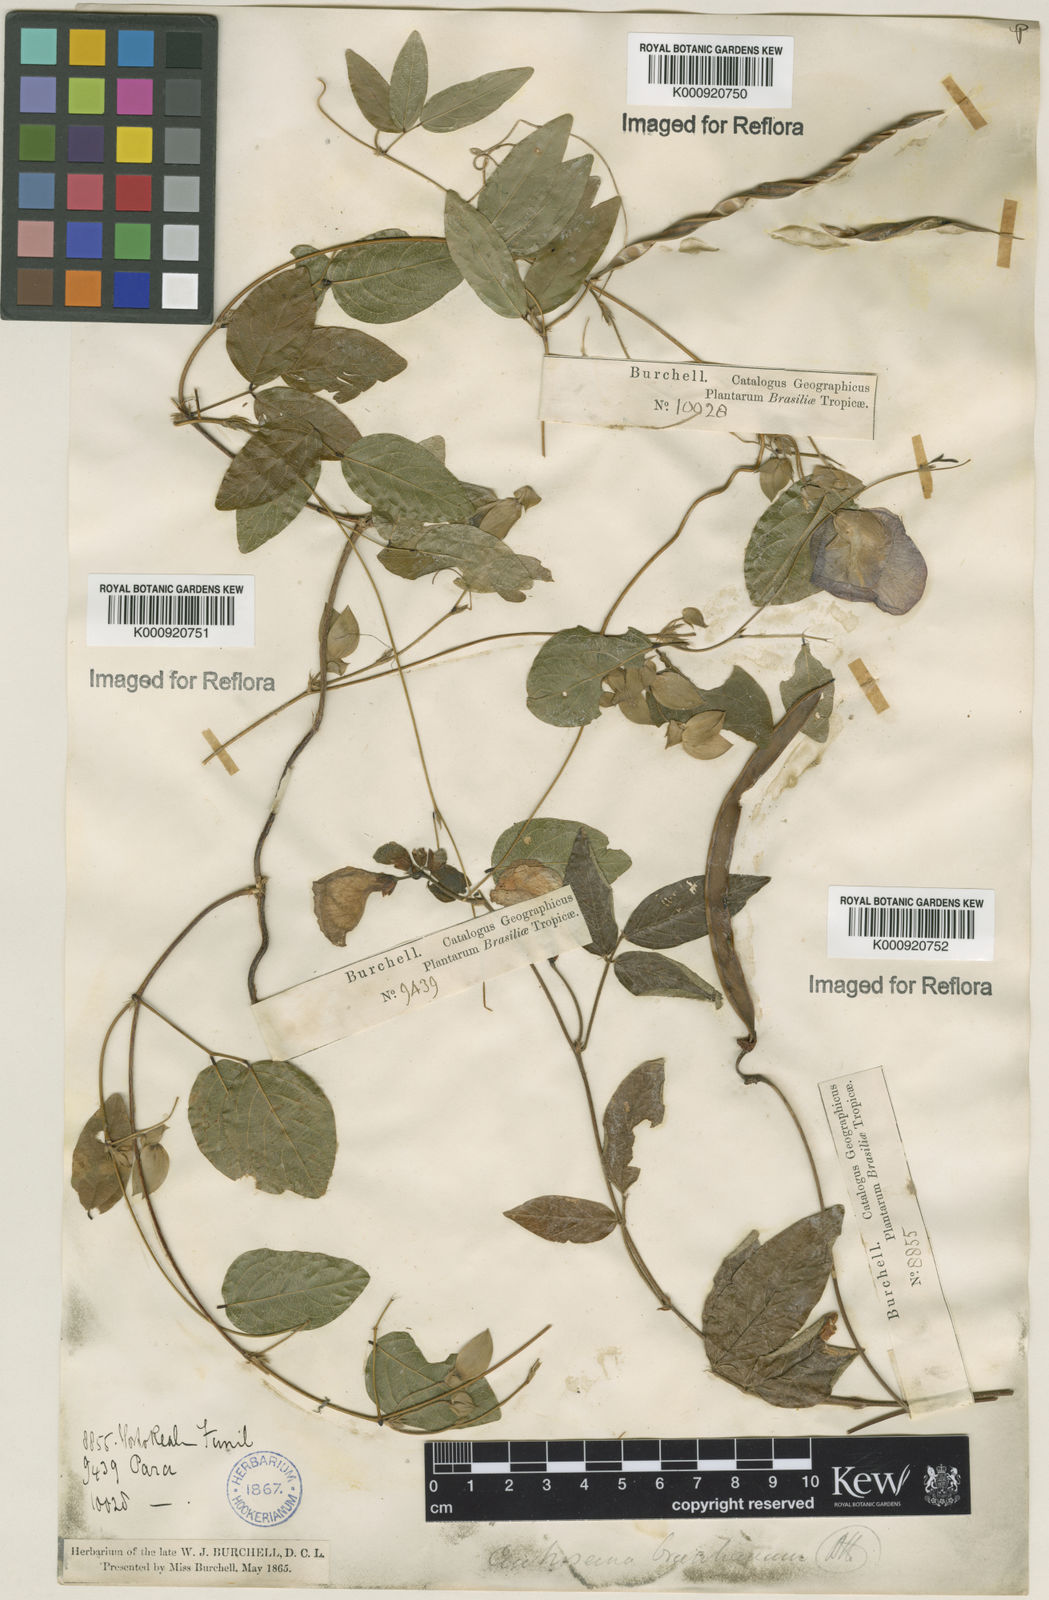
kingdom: Plantae
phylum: Tracheophyta
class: Magnoliopsida
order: Fabales
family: Fabaceae
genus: Centrosema
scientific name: Centrosema brasilianum
